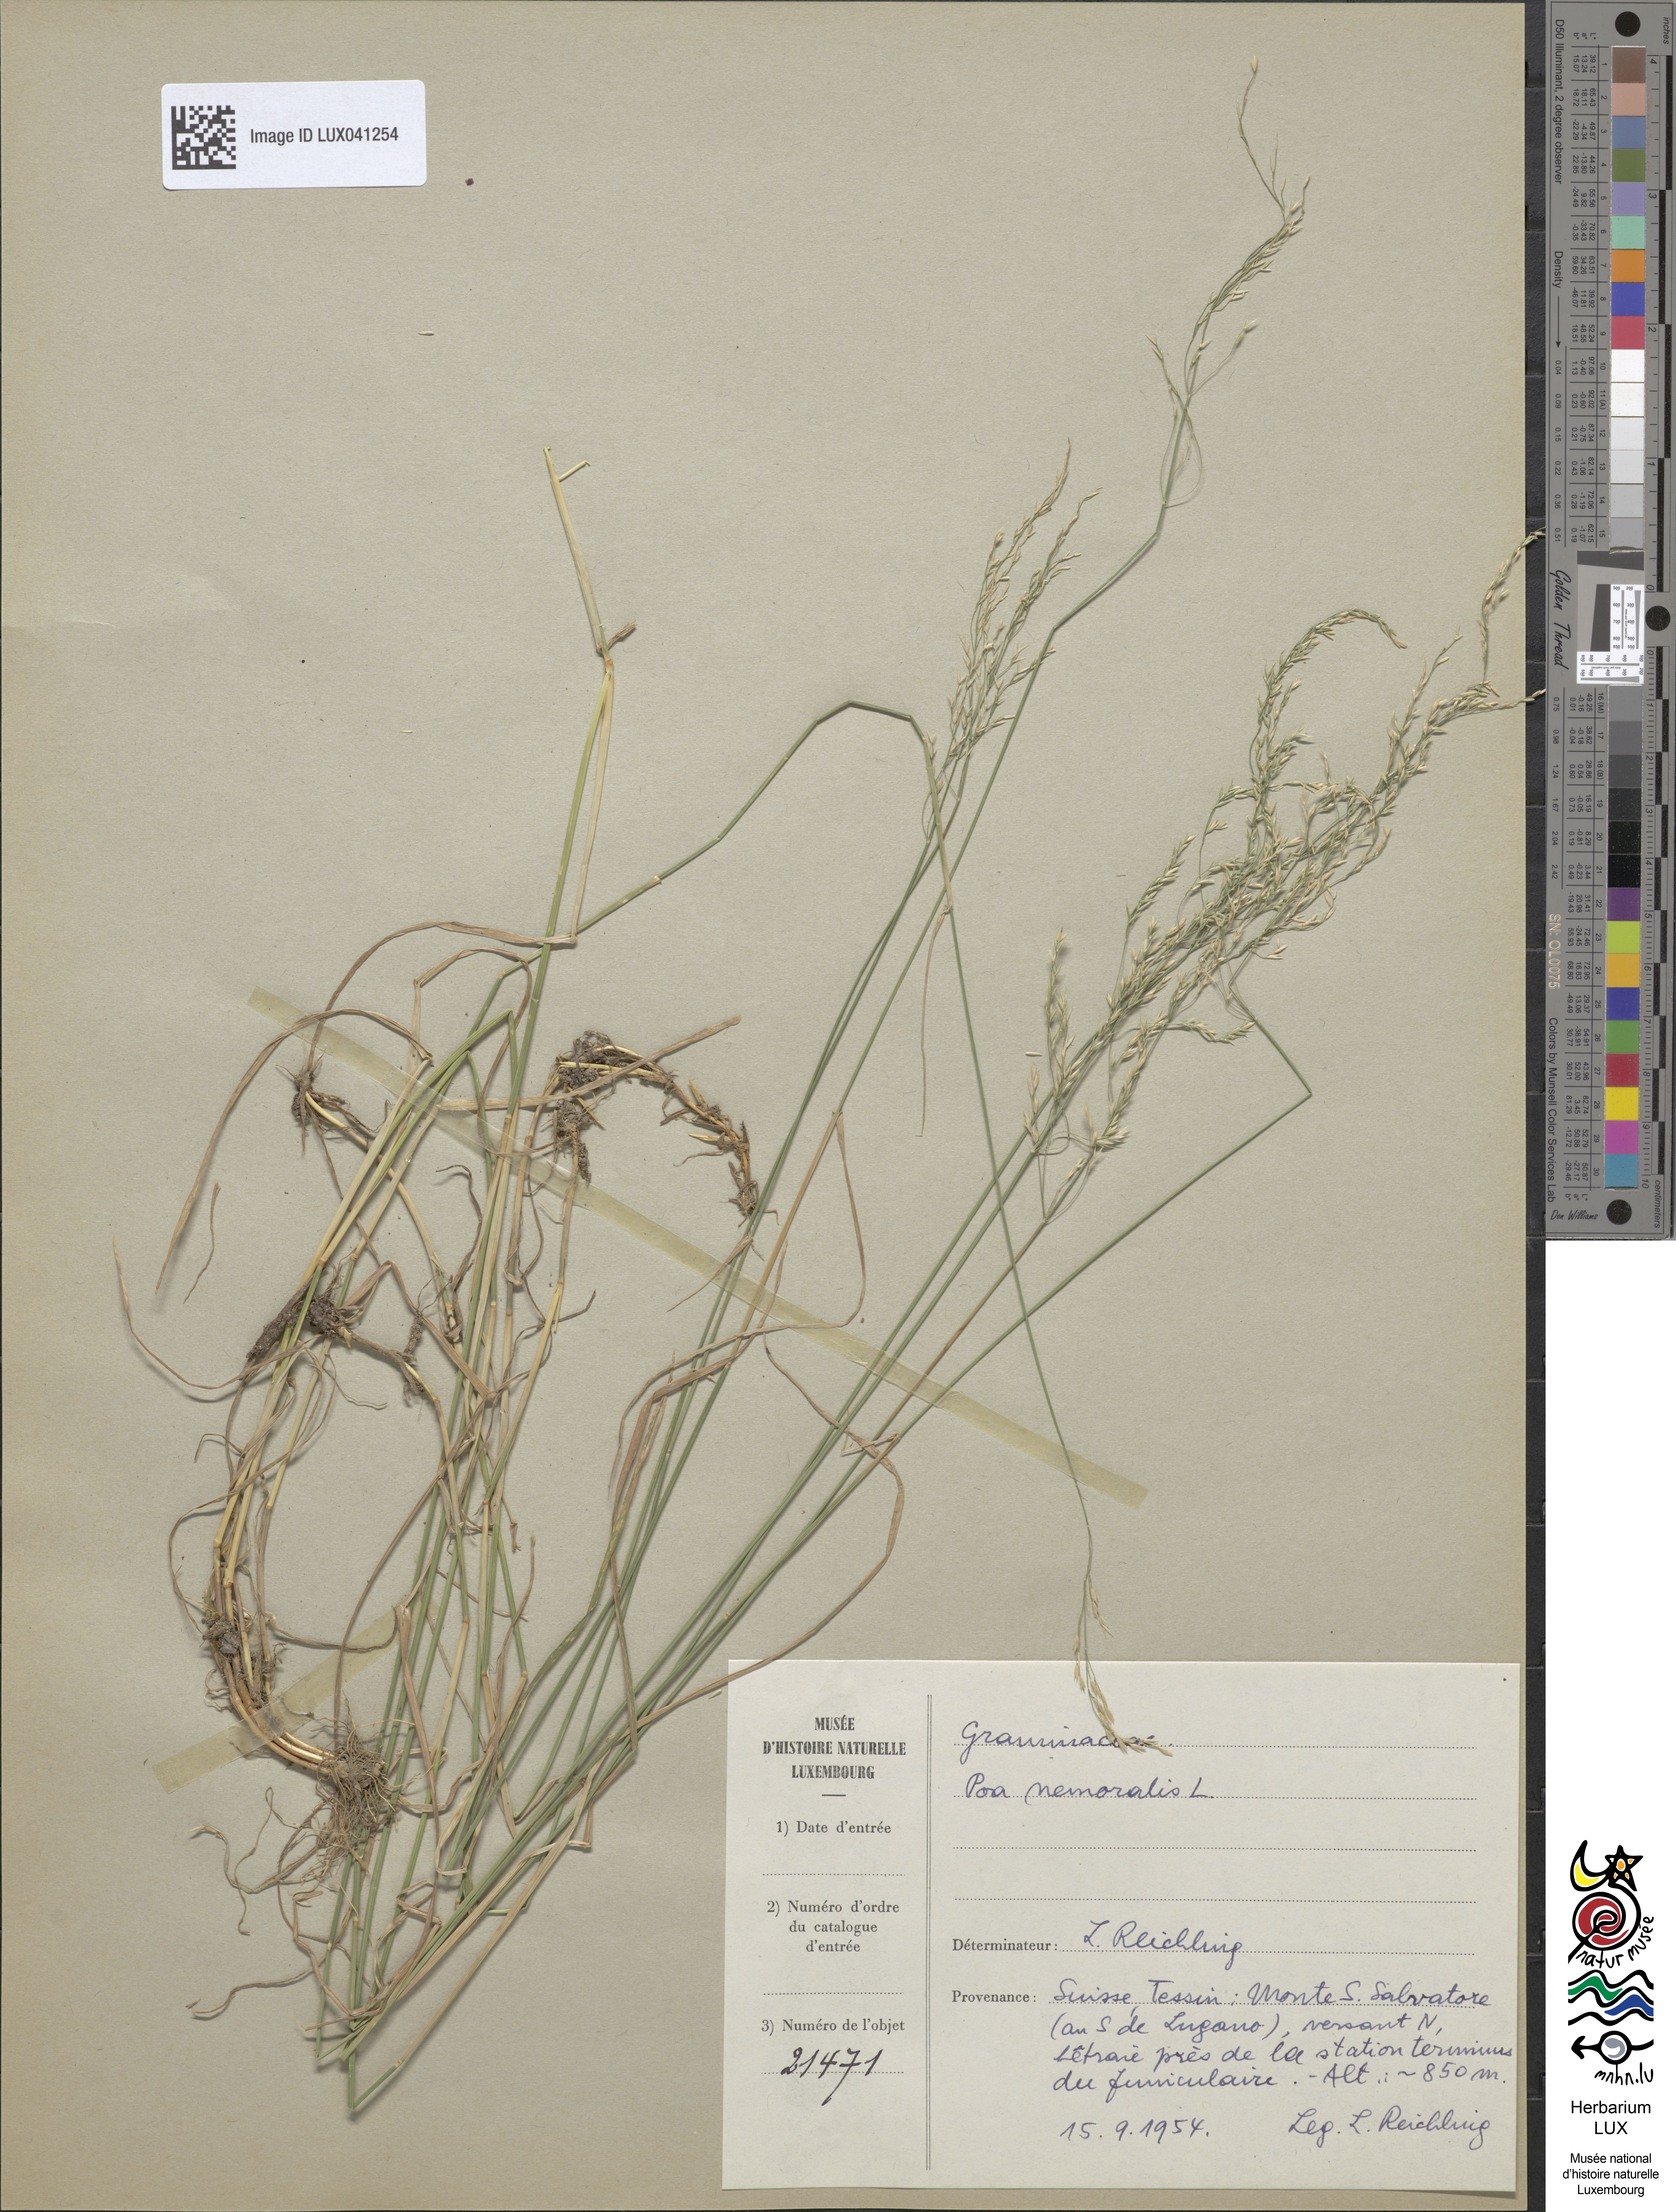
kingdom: Plantae
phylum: Tracheophyta
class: Liliopsida
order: Poales
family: Poaceae
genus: Poa
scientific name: Poa nemoralis
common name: Wood bluegrass
